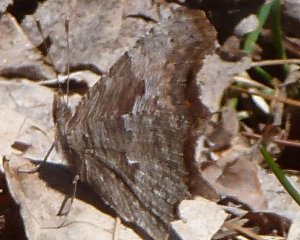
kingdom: Animalia
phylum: Arthropoda
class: Insecta
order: Lepidoptera
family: Nymphalidae
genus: Polygonia
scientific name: Polygonia progne
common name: Gray Comma
